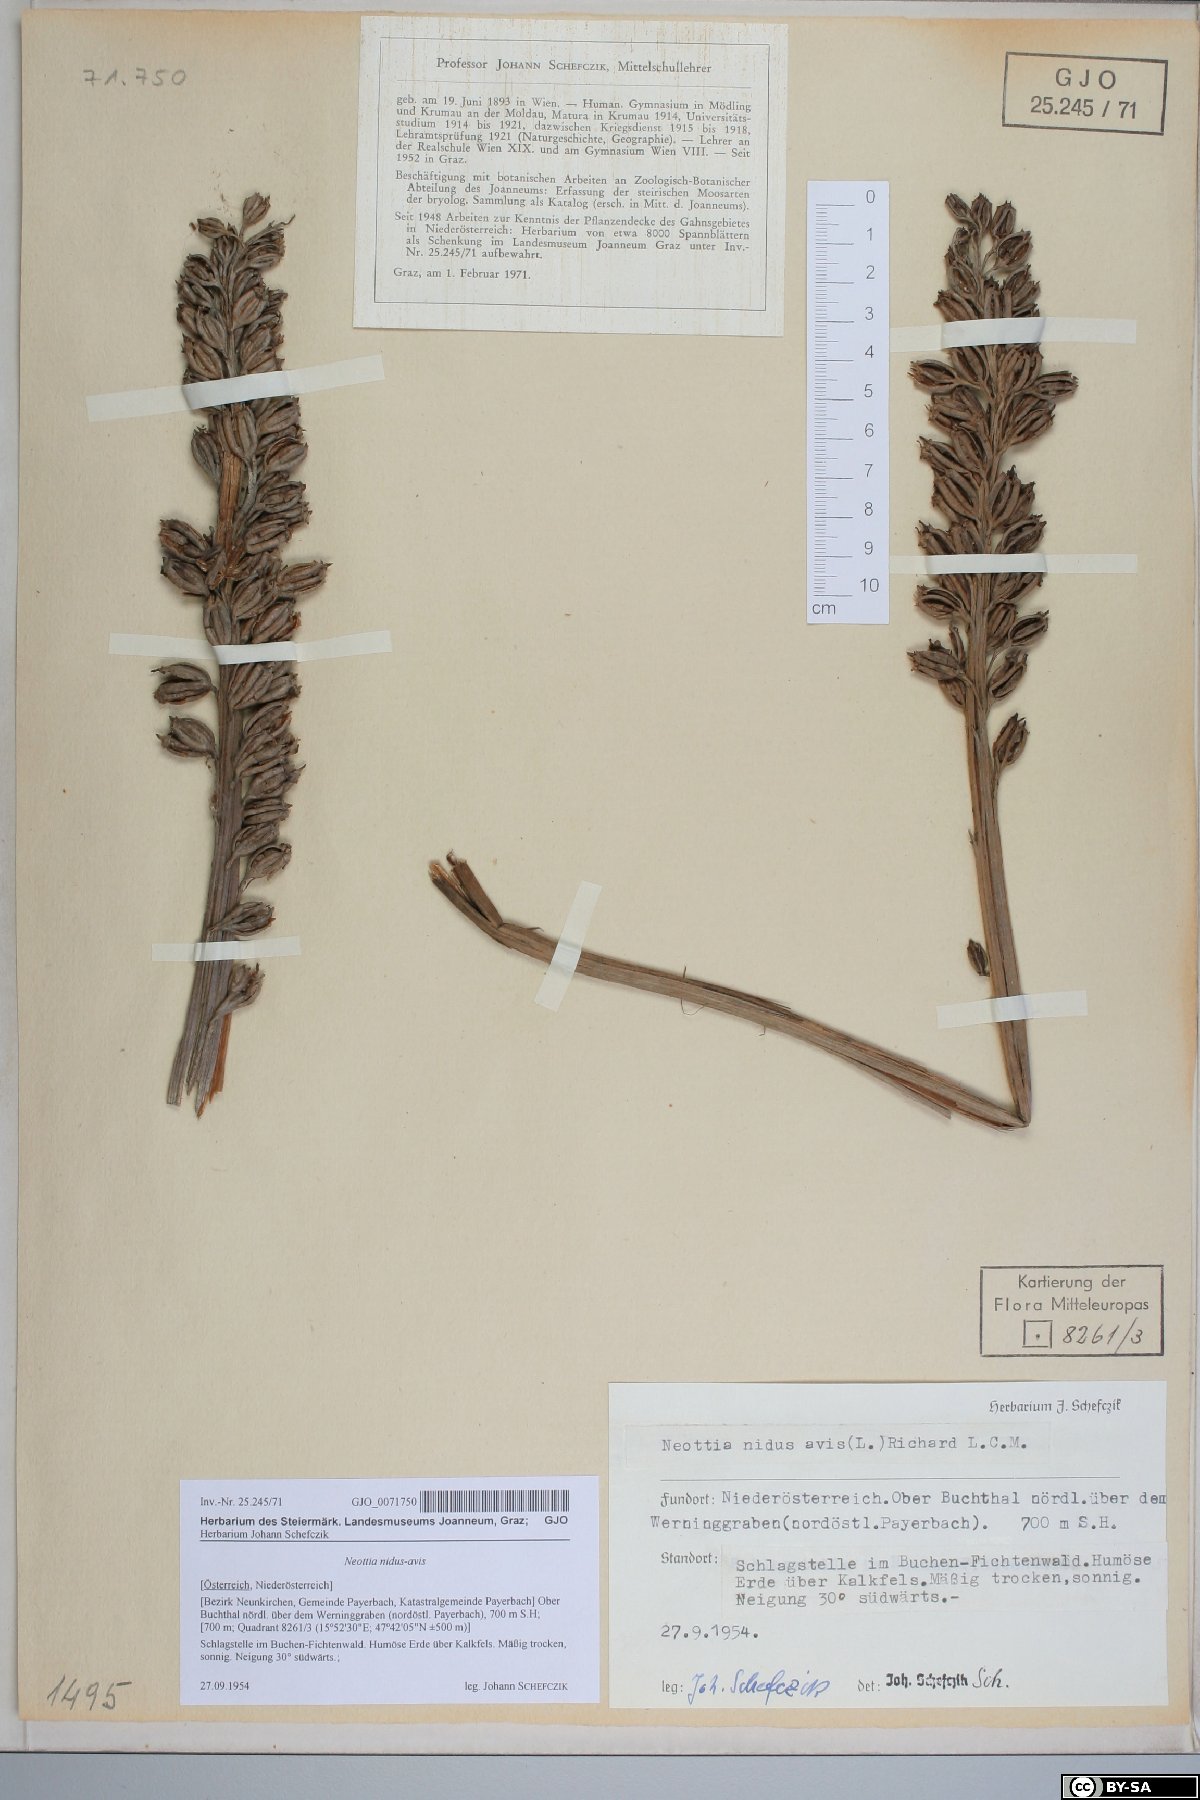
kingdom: Plantae
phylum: Tracheophyta
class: Liliopsida
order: Asparagales
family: Orchidaceae
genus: Neottia
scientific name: Neottia nidus-avis
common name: Bird's-nest orchid
